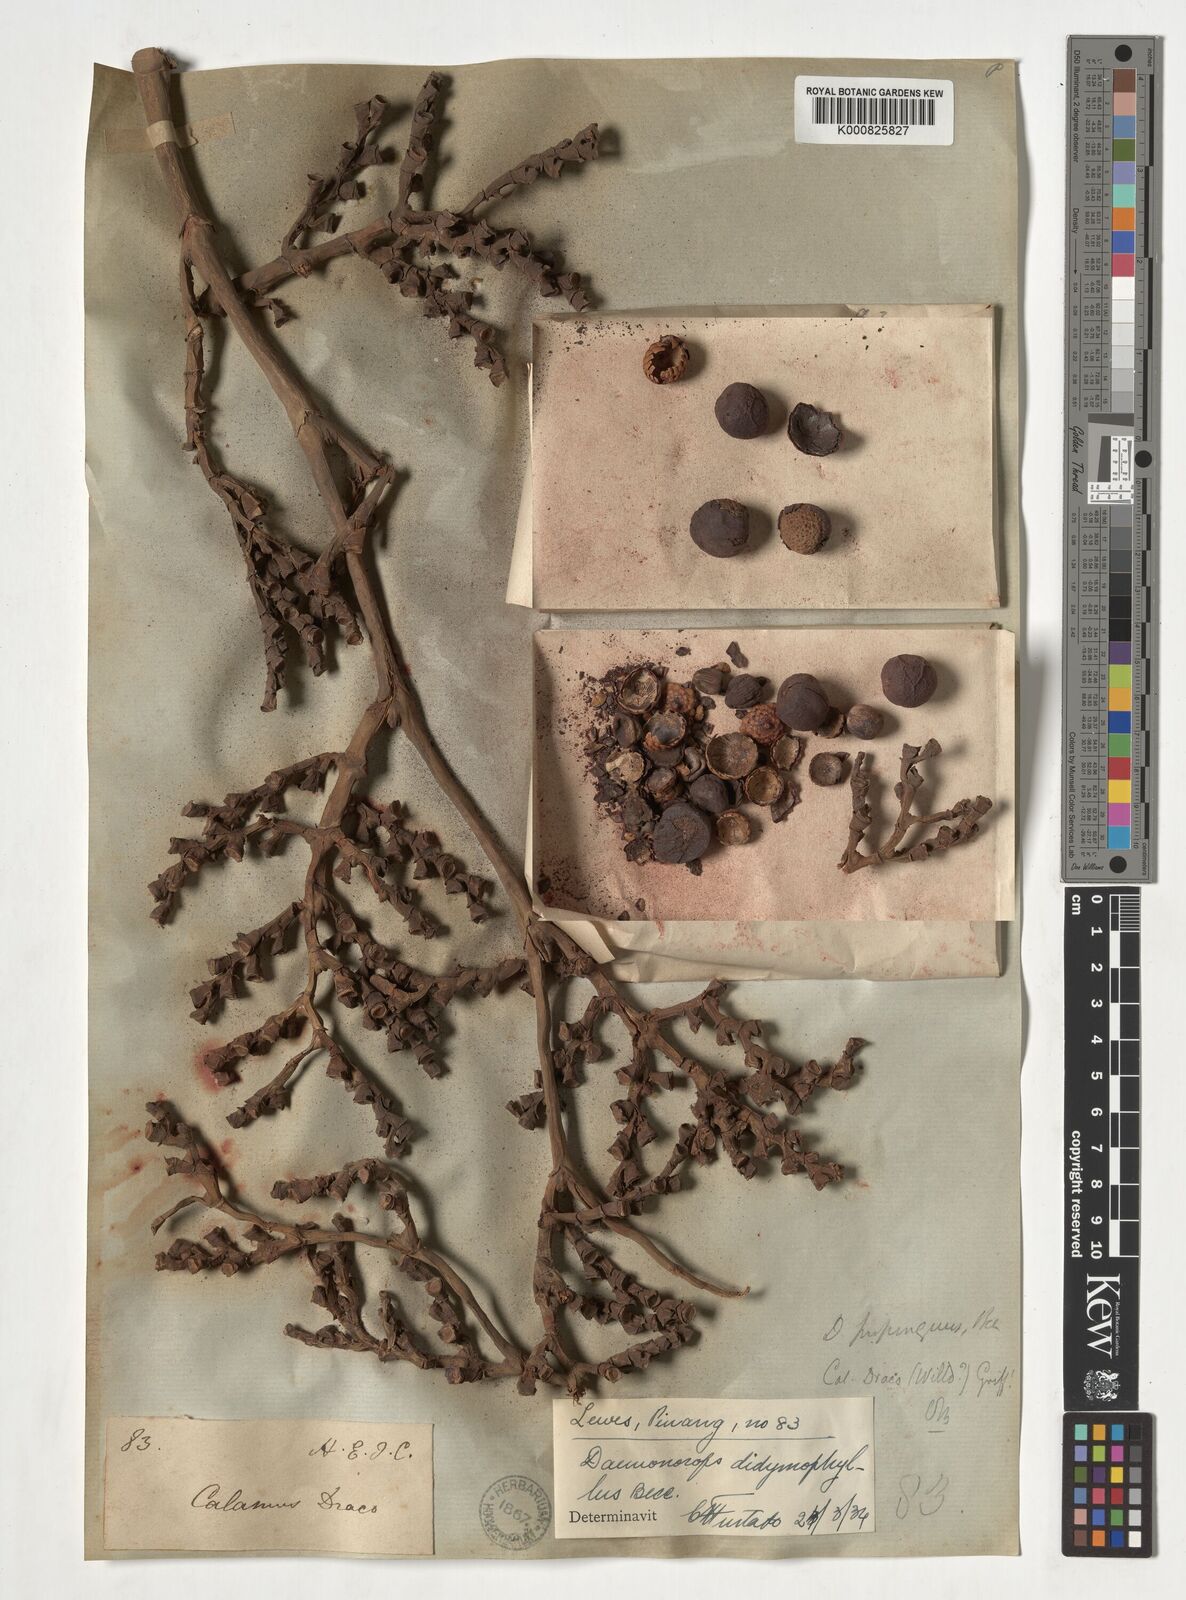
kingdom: Plantae
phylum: Tracheophyta
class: Liliopsida
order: Arecales
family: Arecaceae
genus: Calamus
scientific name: Calamus gracilipes
